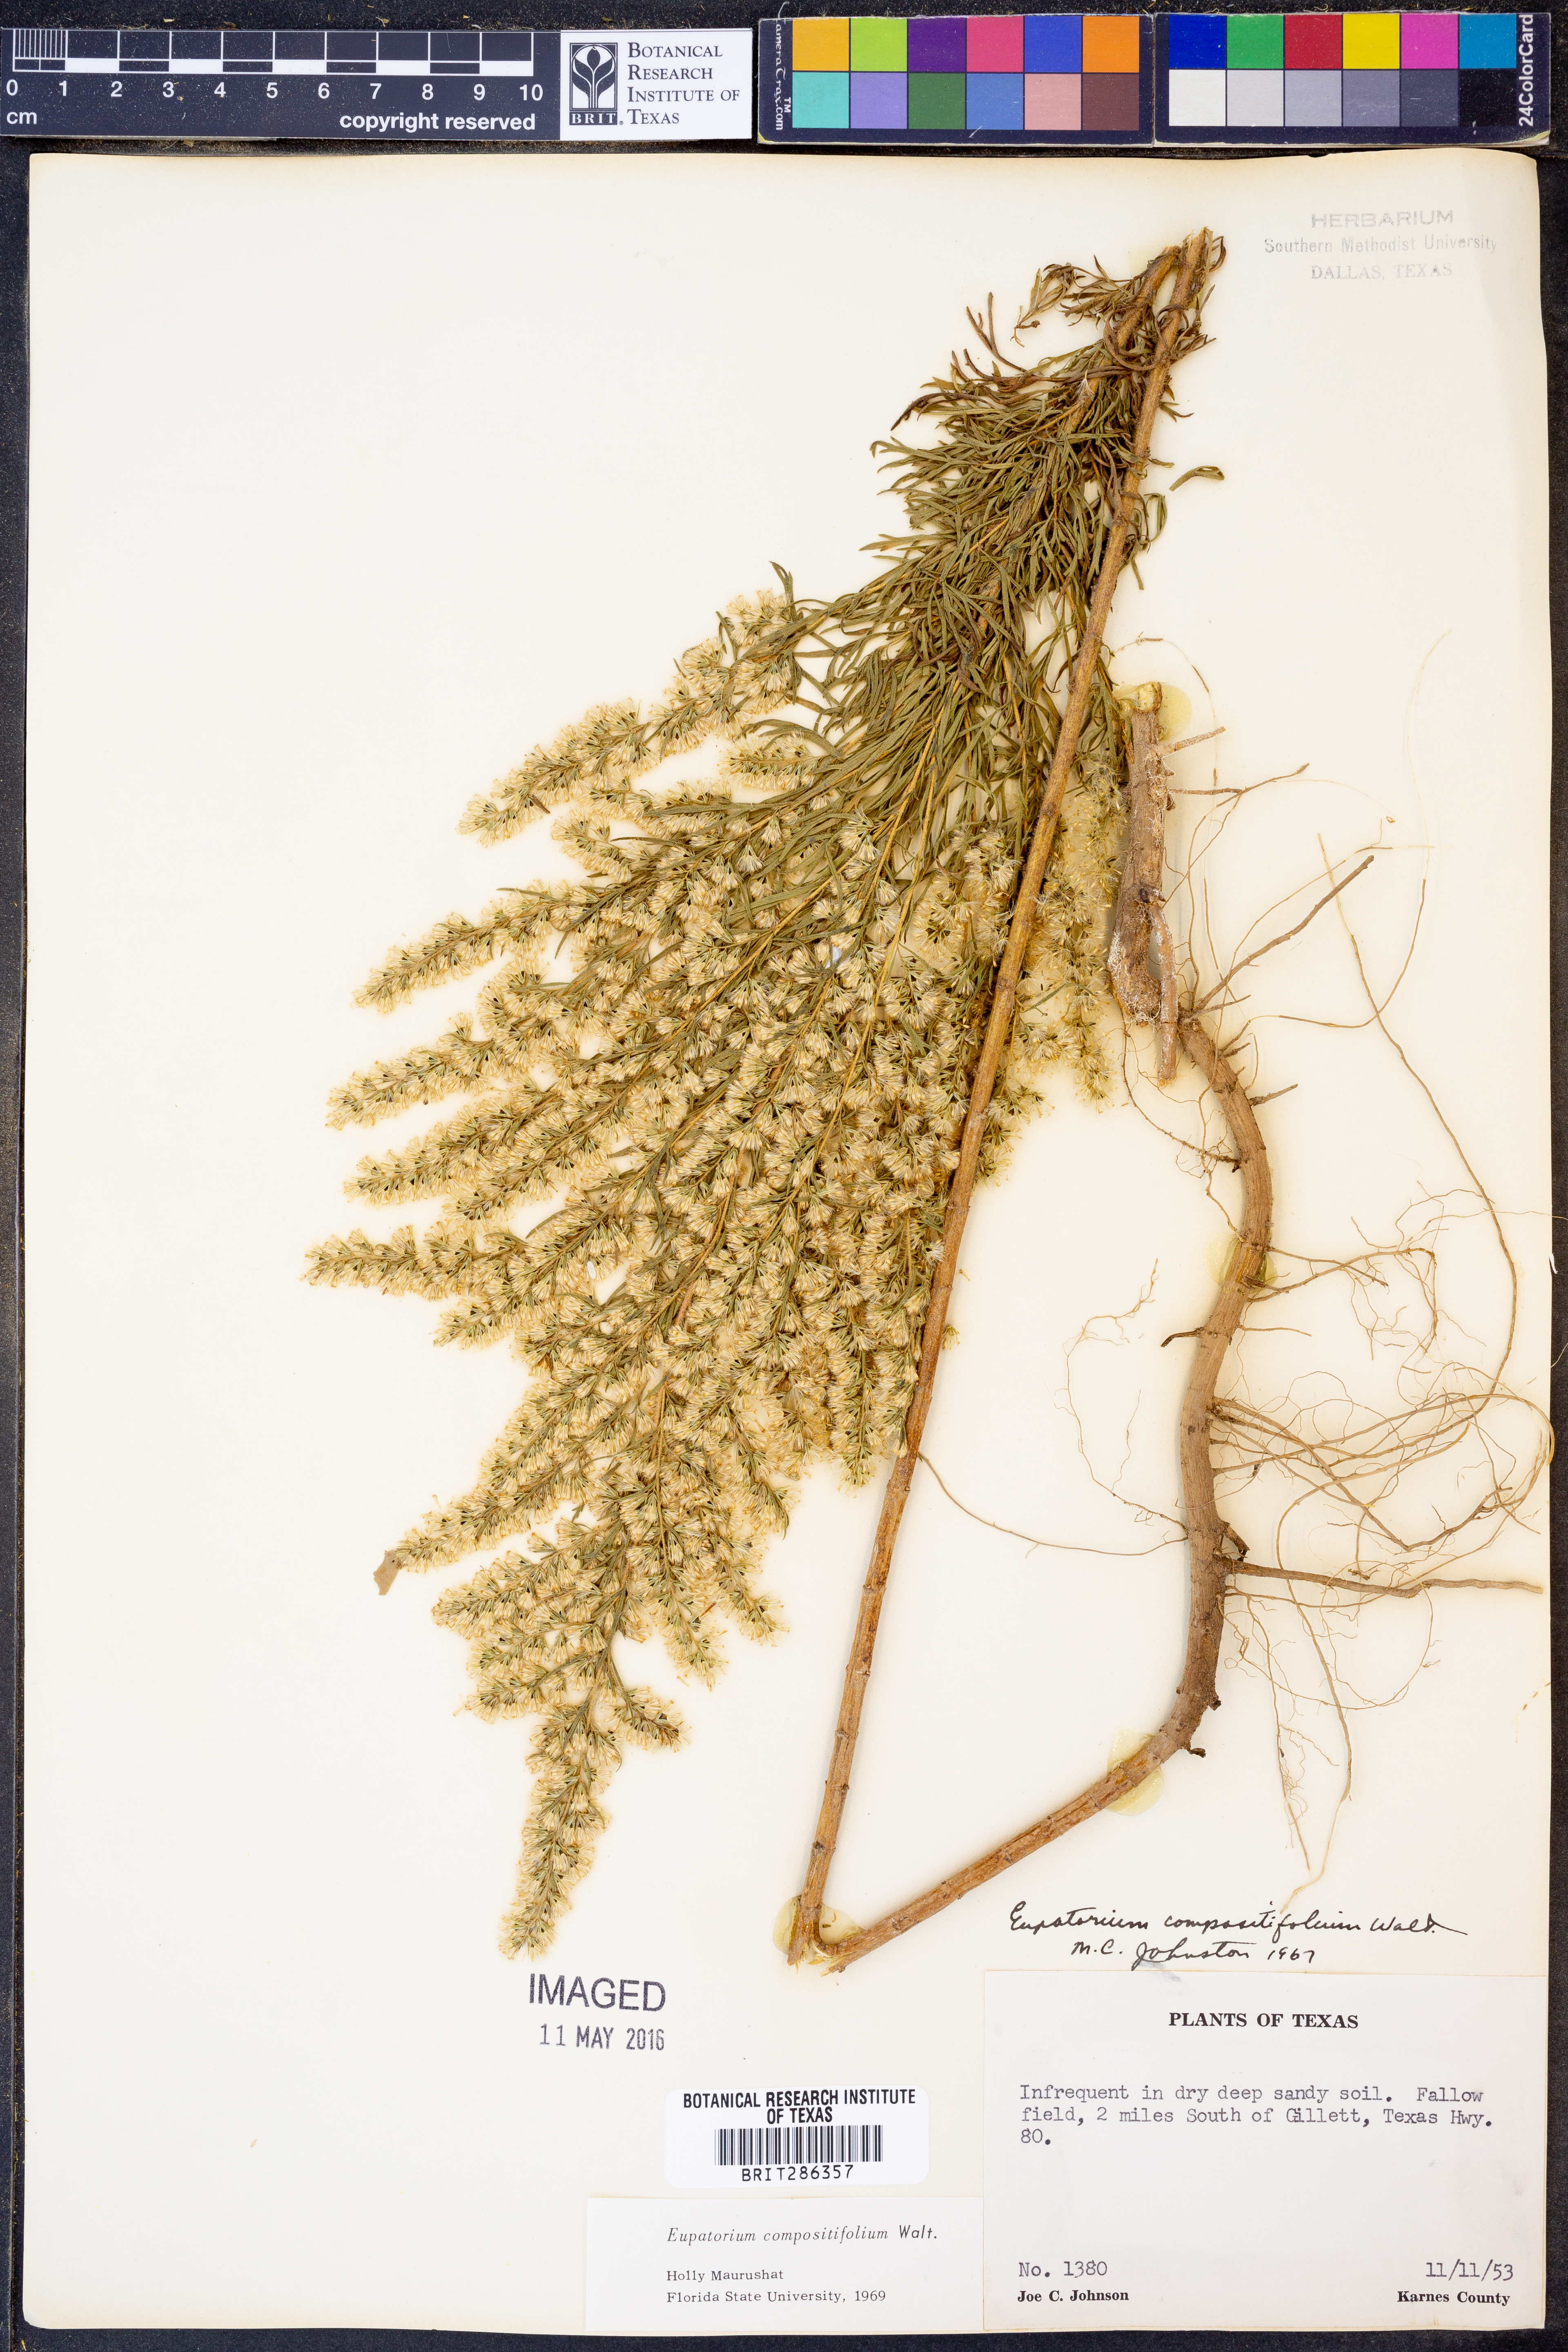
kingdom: Plantae
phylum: Tracheophyta
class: Magnoliopsida
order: Asterales
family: Asteraceae
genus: Eupatorium
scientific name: Eupatorium compositifolium
